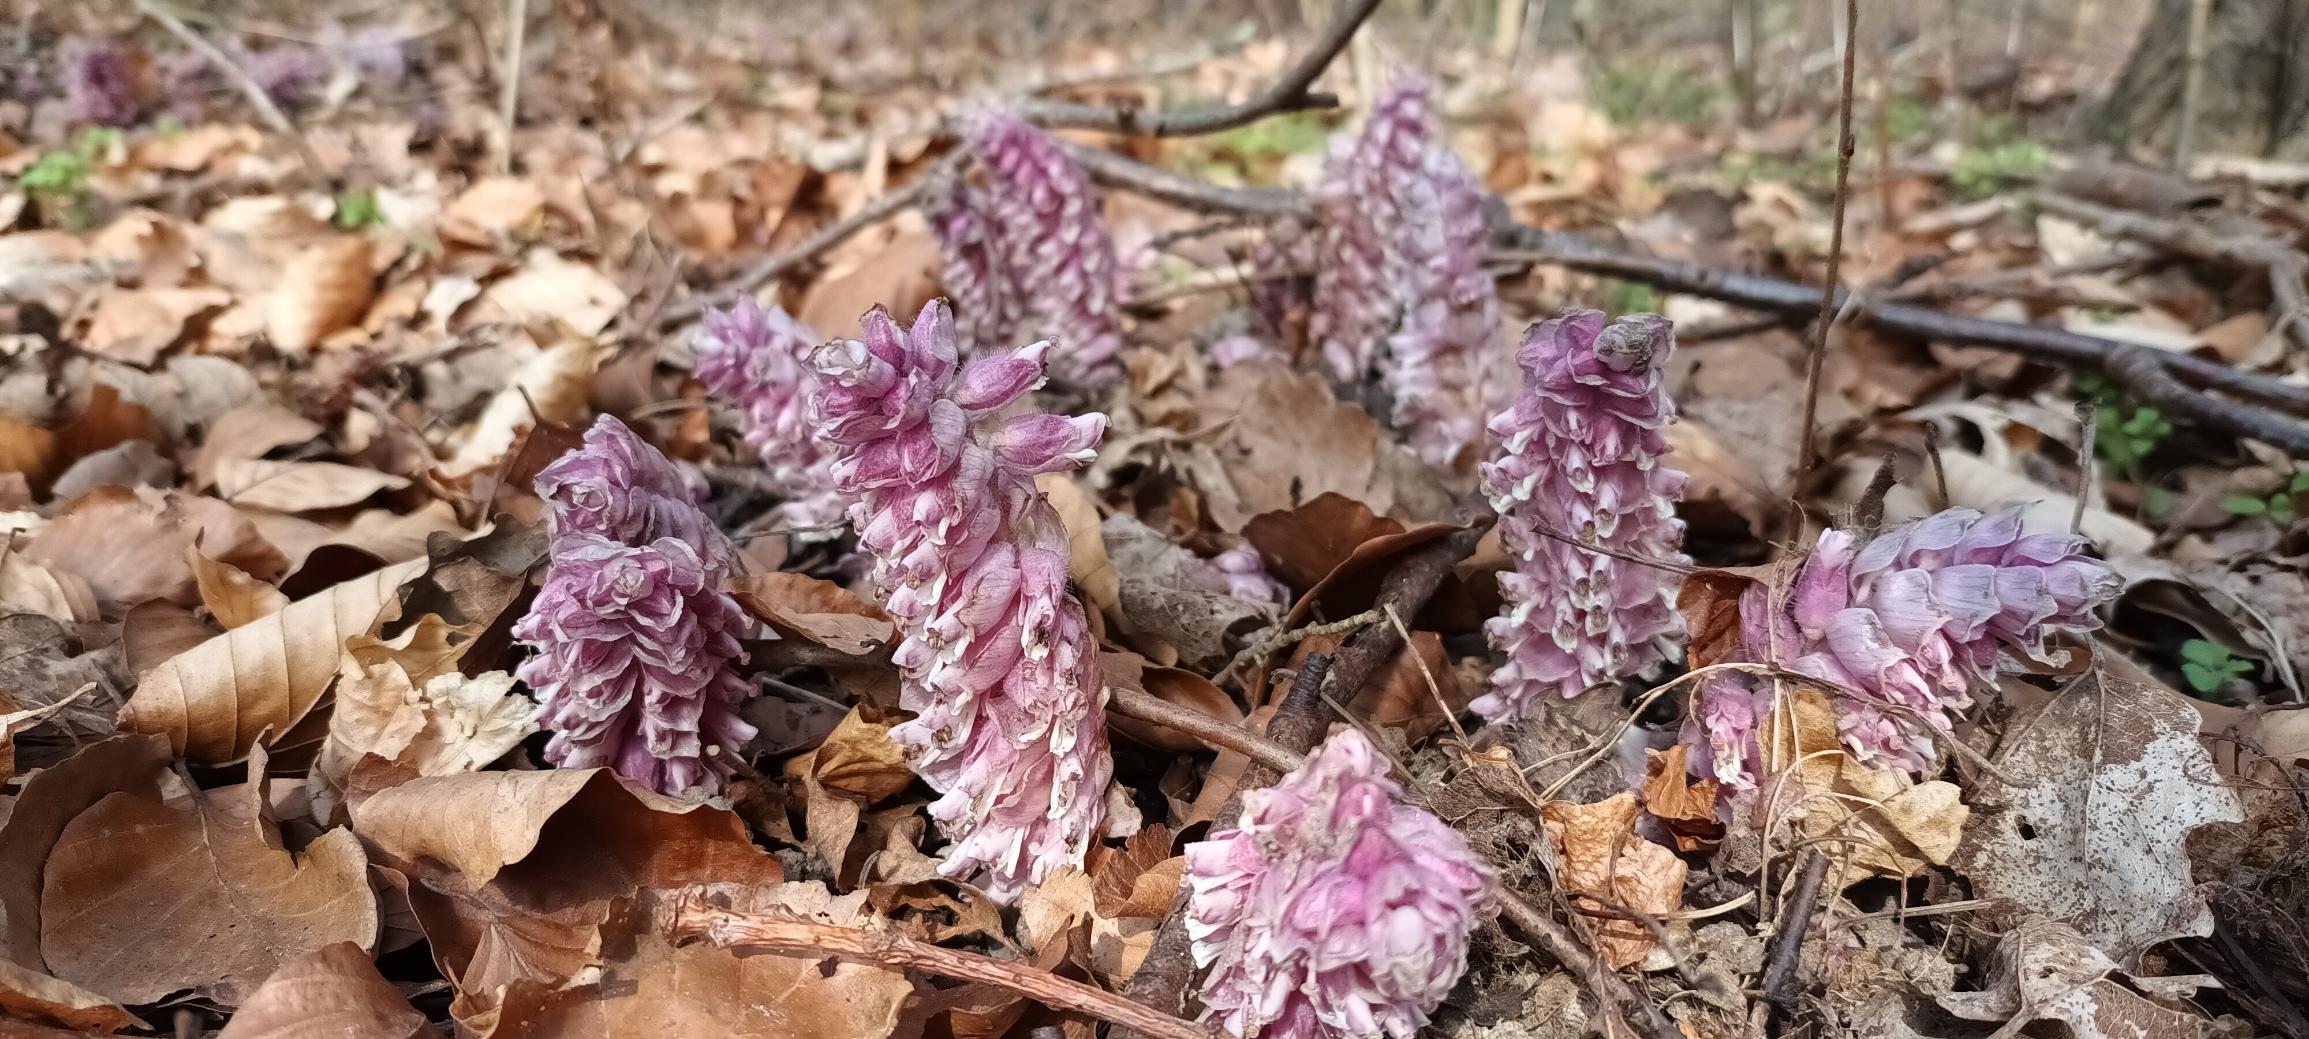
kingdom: Plantae
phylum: Tracheophyta
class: Magnoliopsida
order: Lamiales
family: Orobanchaceae
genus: Lathraea
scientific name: Lathraea squamaria
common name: Skælrod
